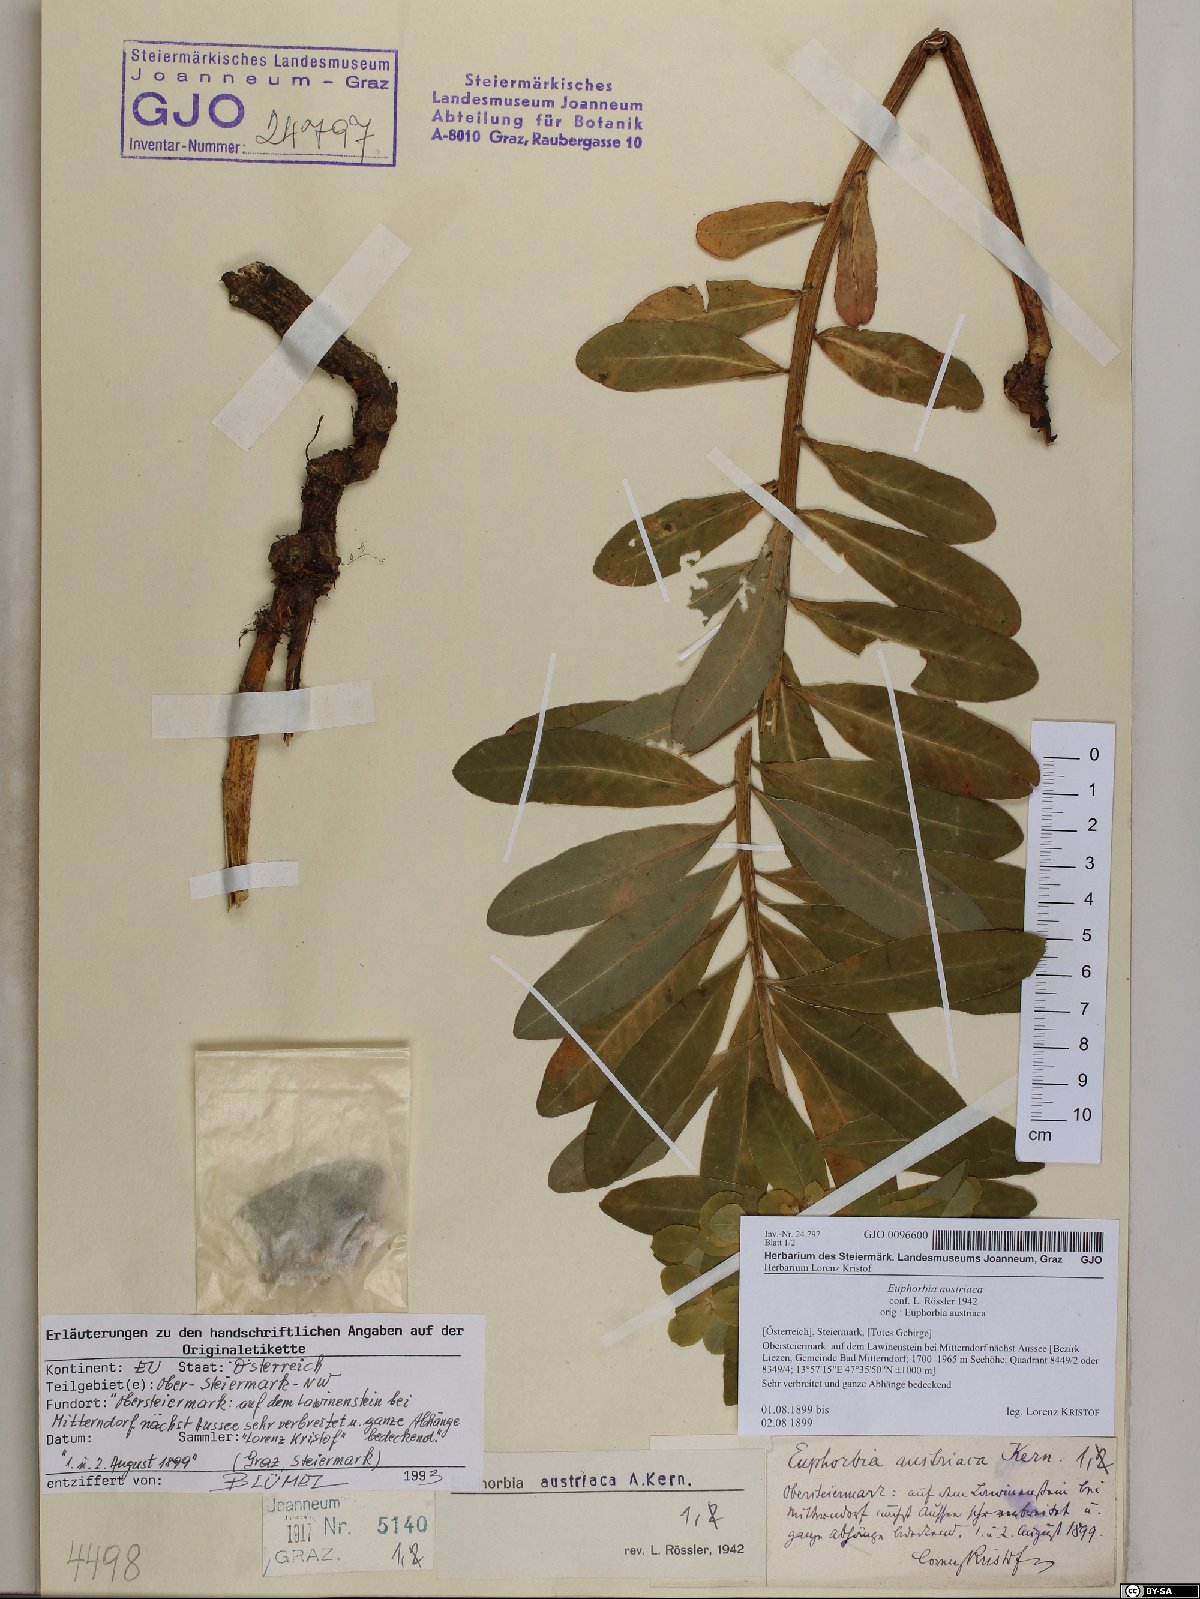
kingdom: Plantae
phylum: Tracheophyta
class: Magnoliopsida
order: Malpighiales
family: Euphorbiaceae
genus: Euphorbia
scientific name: Euphorbia austriaca
